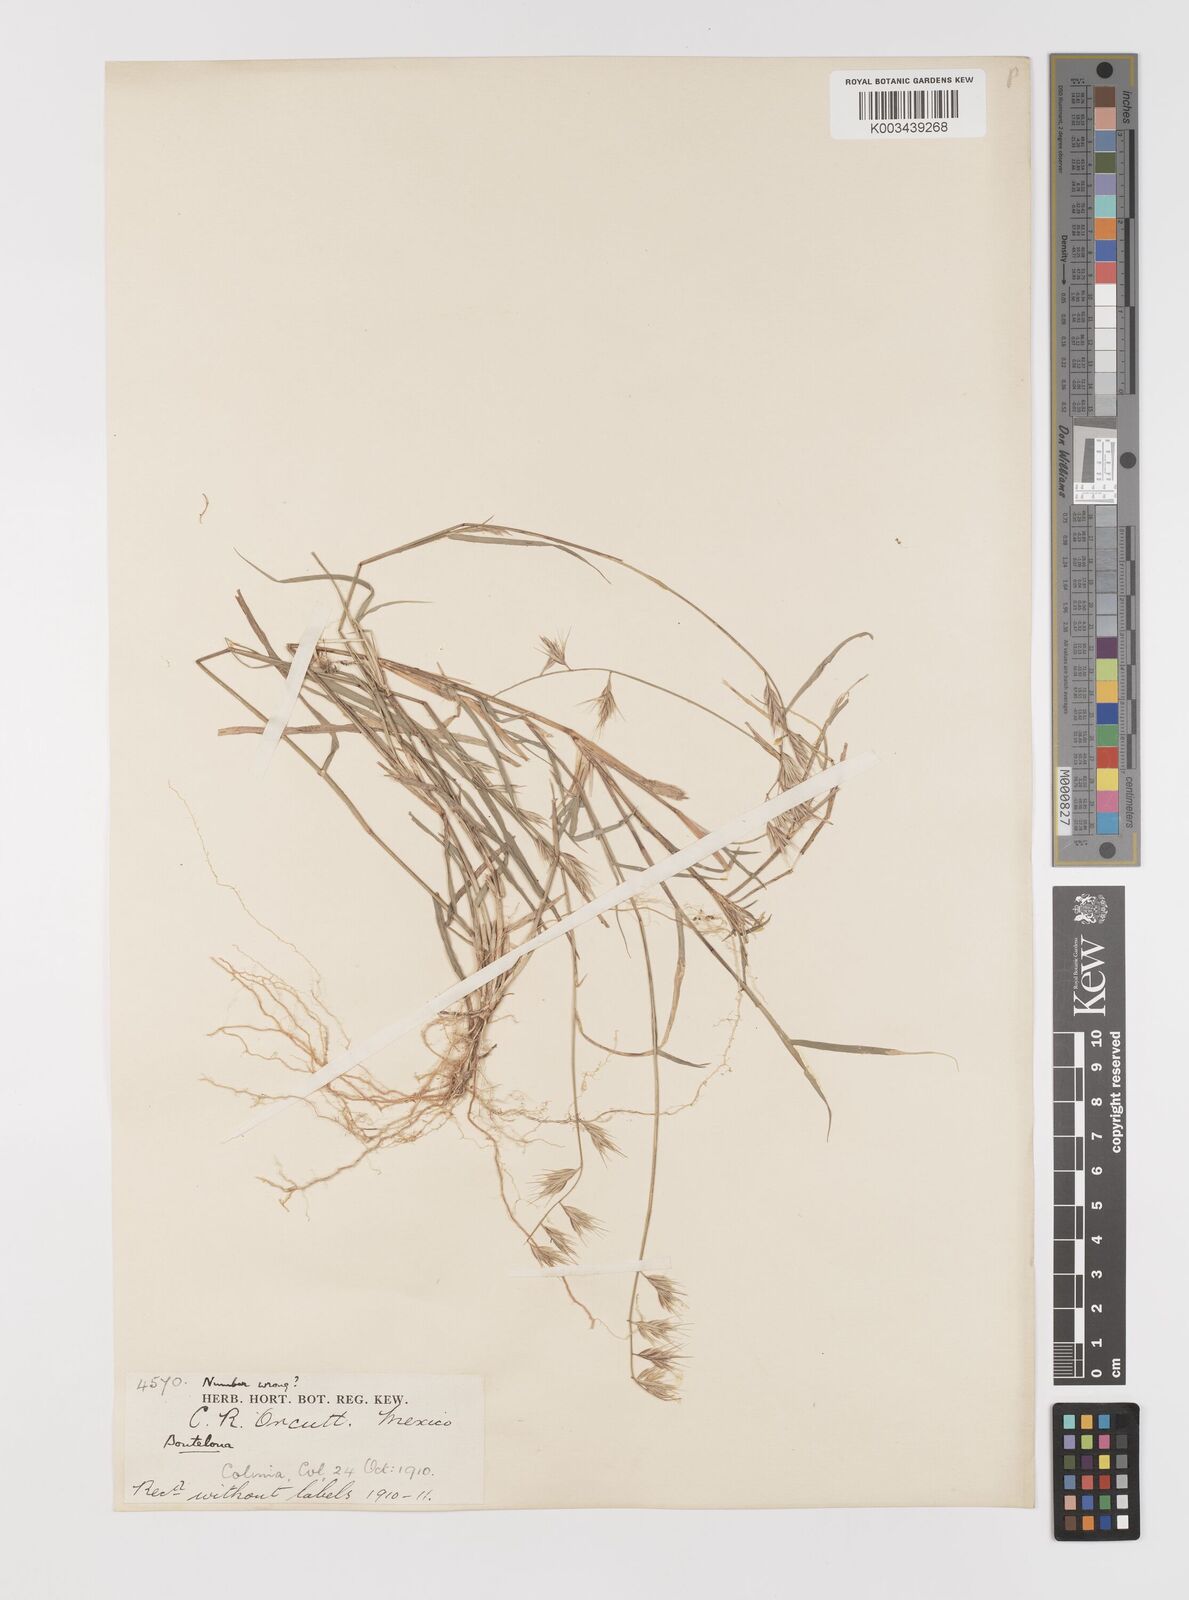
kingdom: Plantae
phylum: Tracheophyta
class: Liliopsida
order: Poales
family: Poaceae
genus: Bouteloua
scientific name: Bouteloua repens
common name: Slender grama
